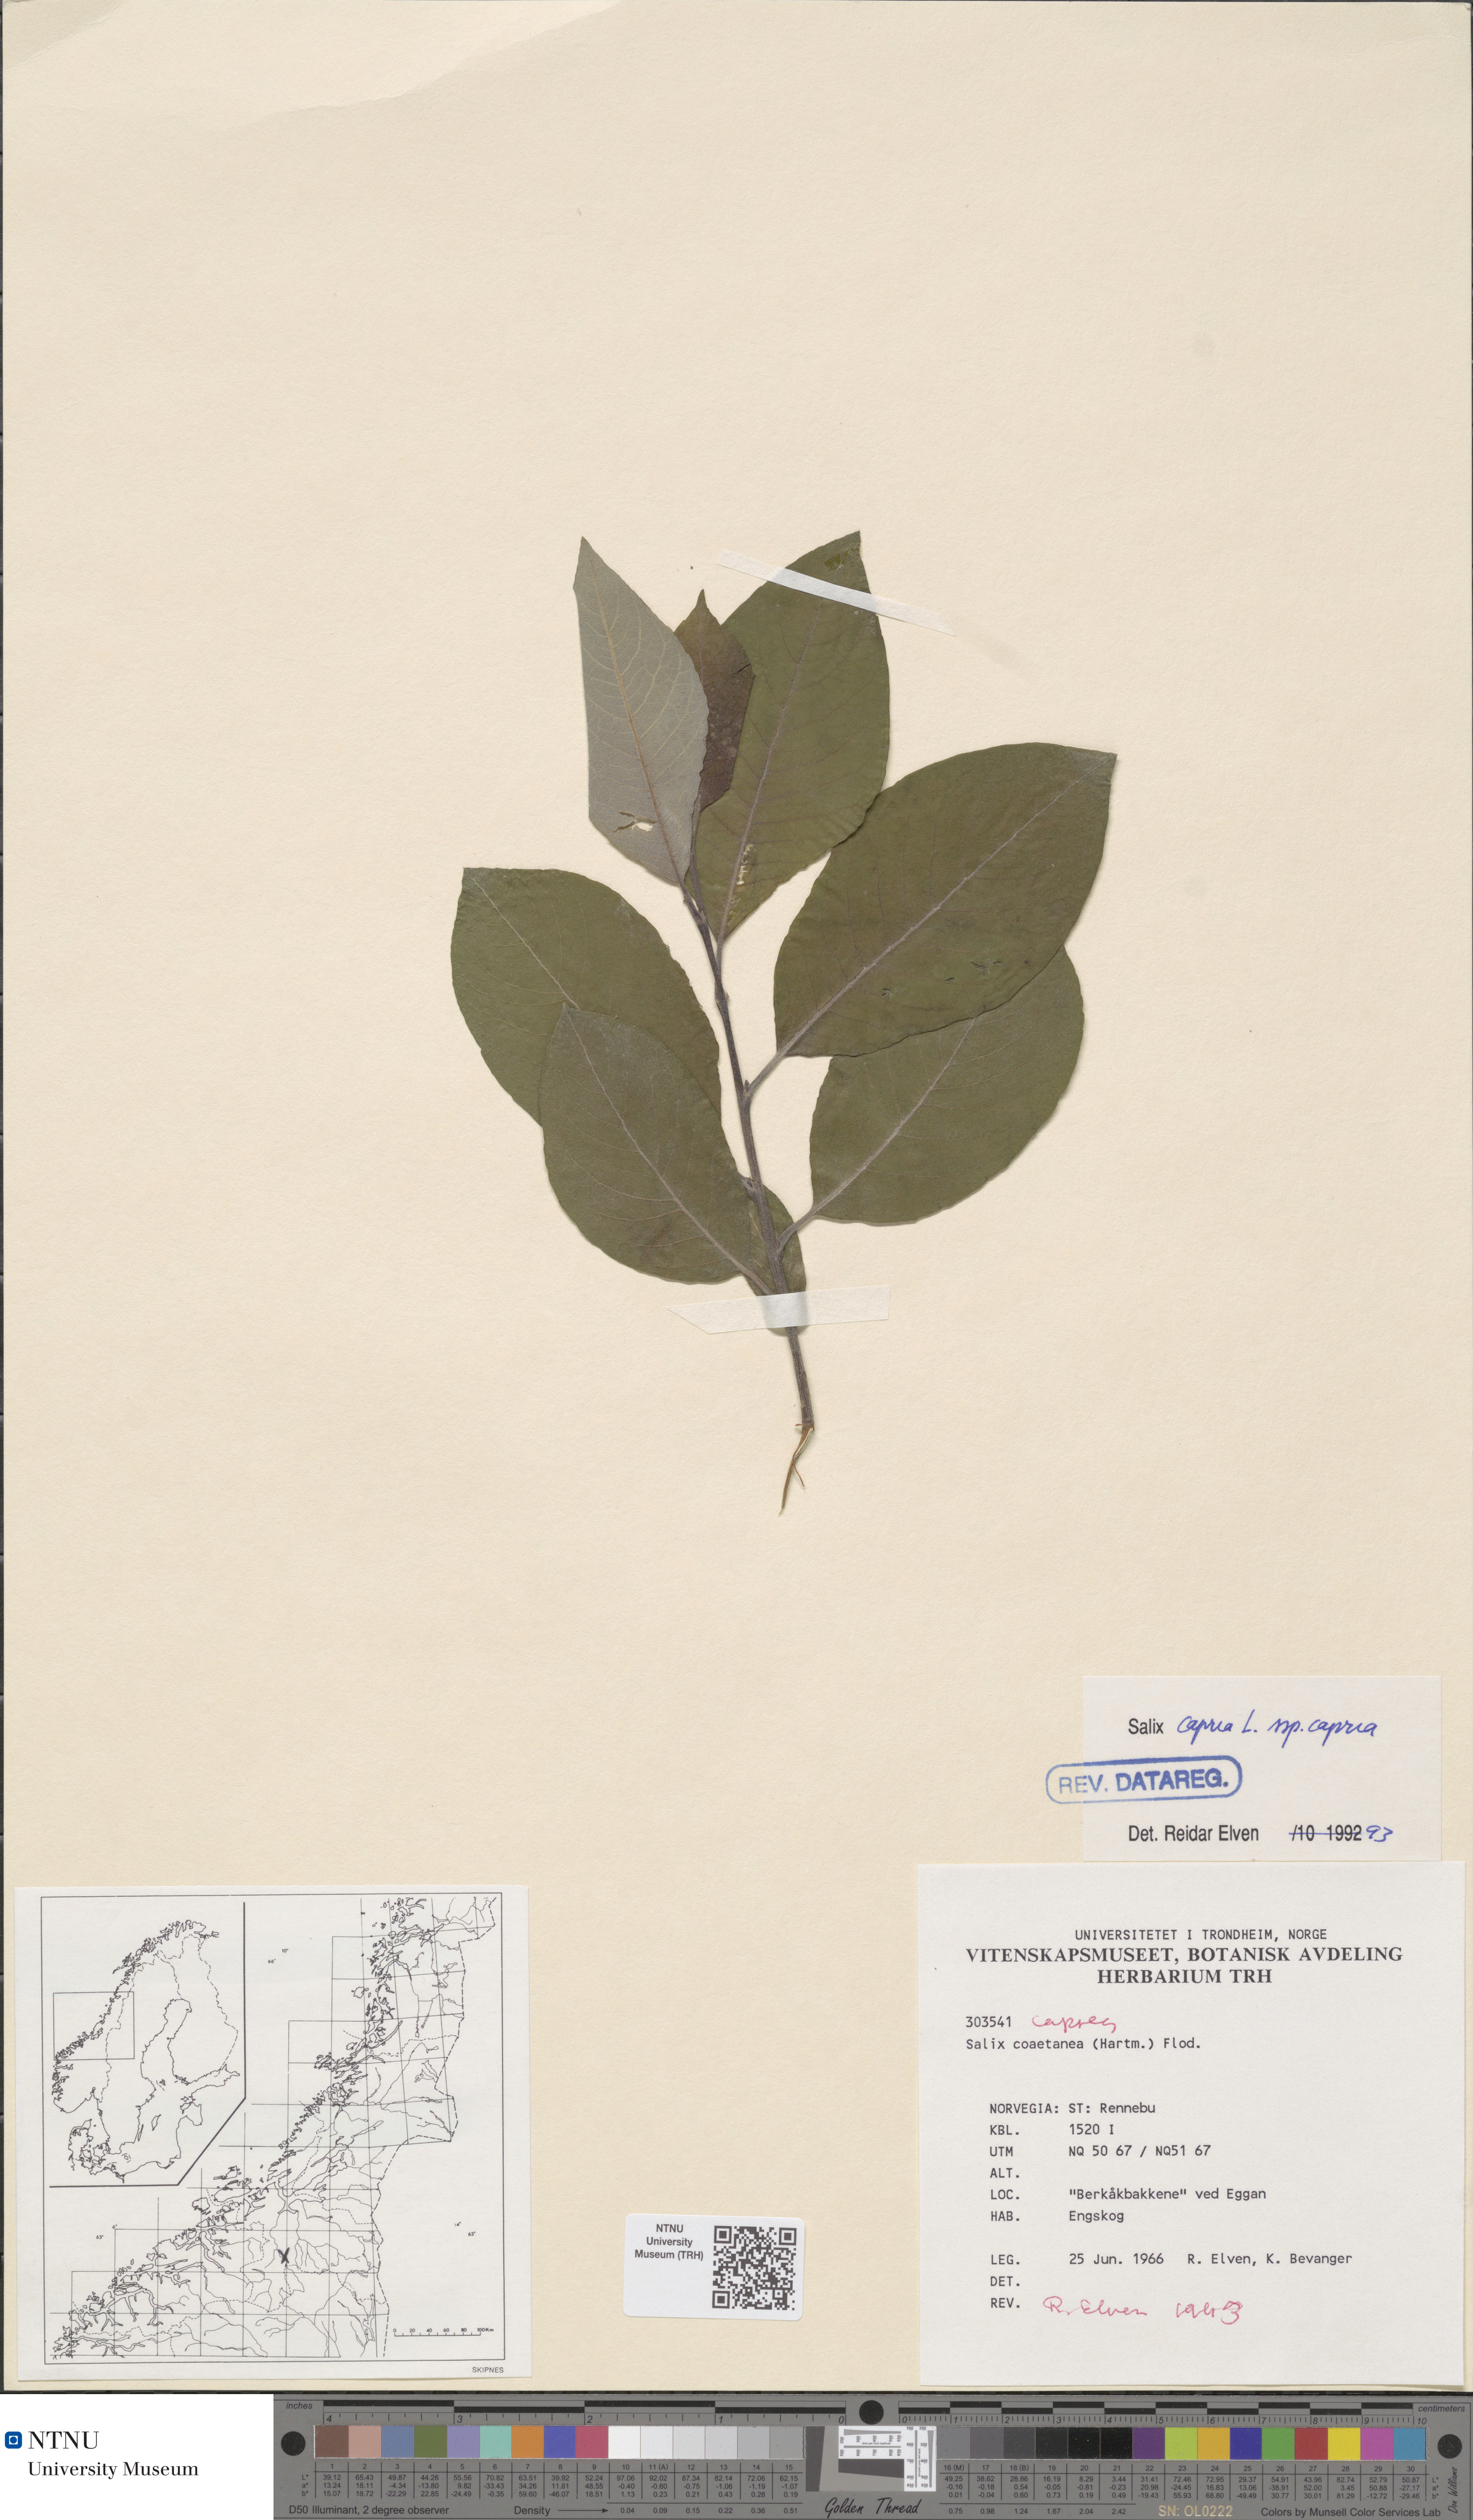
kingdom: Plantae
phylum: Tracheophyta
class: Magnoliopsida
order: Malpighiales
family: Salicaceae
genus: Salix
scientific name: Salix caprea
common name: Goat willow
